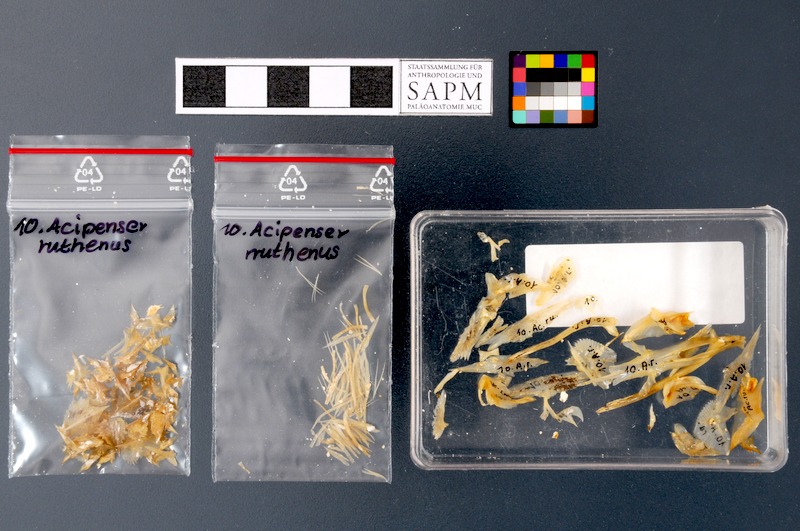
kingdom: Animalia
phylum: Chordata
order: Acipenseriformes
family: Acipenseridae
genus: Acipenser
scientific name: Acipenser ruthenus
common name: Sterlet
